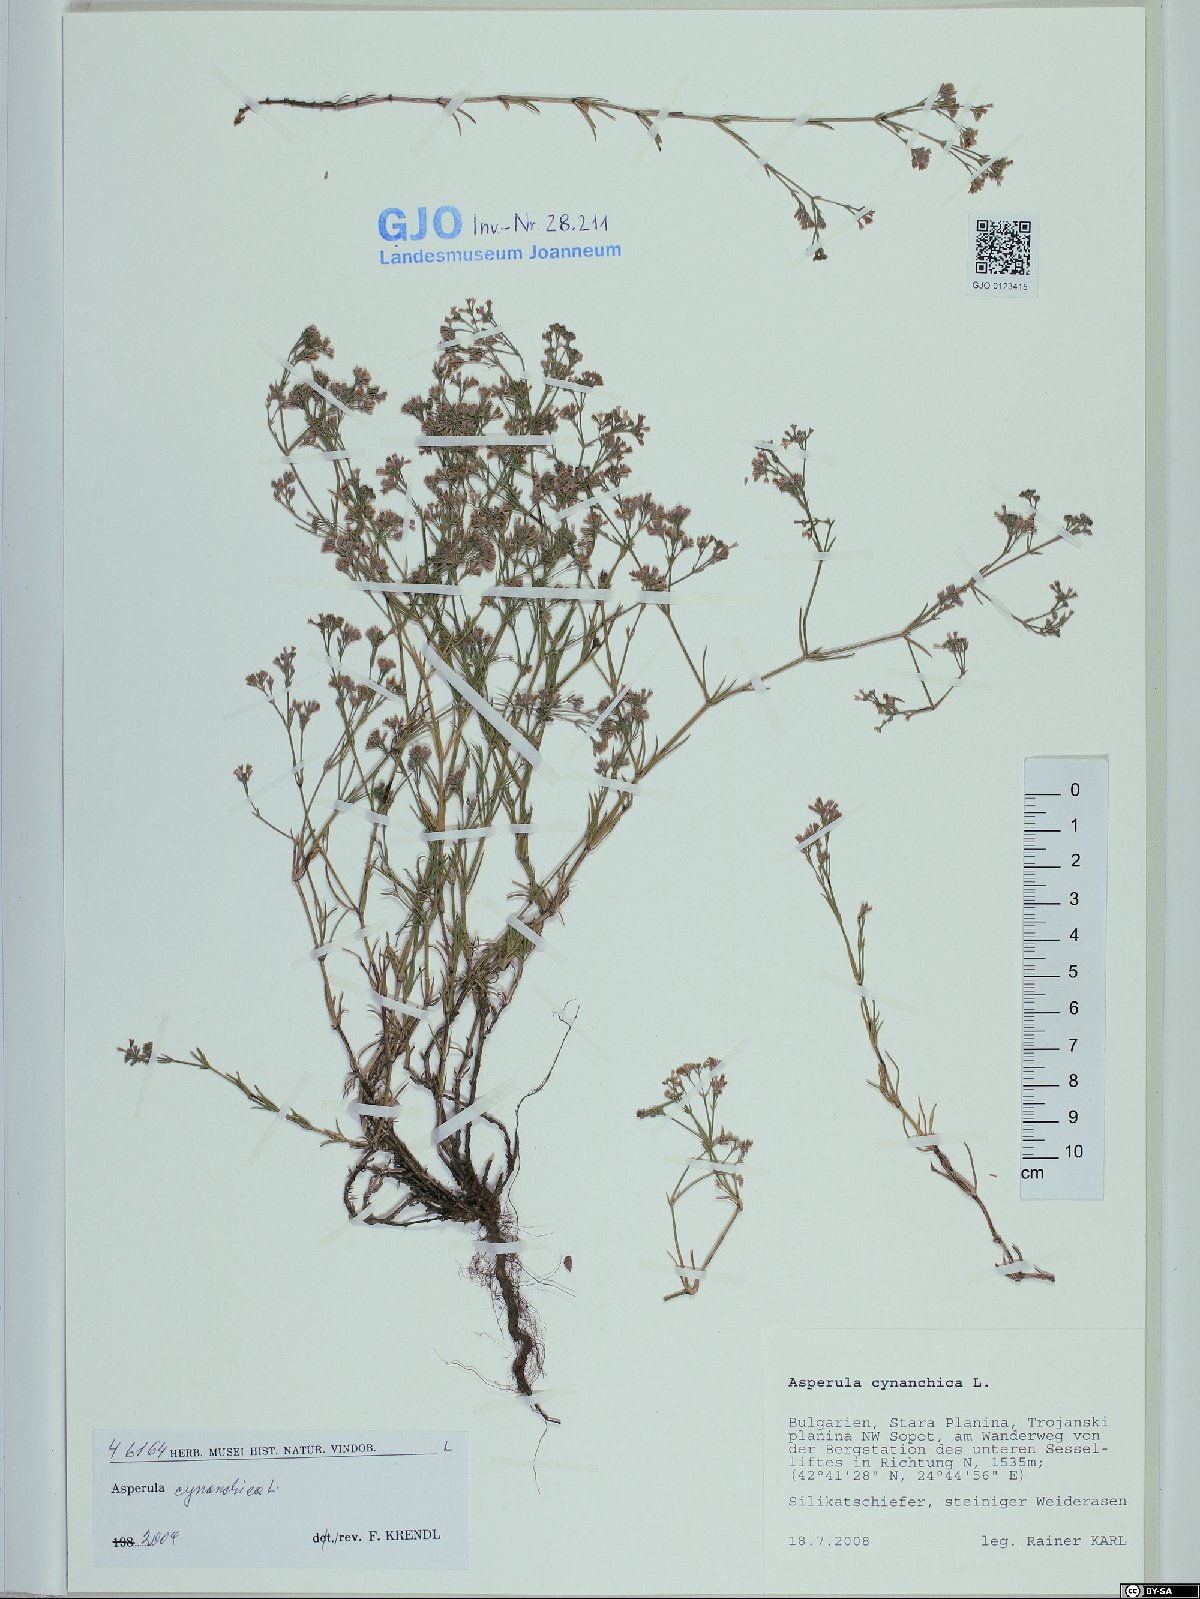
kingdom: Plantae
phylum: Tracheophyta
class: Magnoliopsida
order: Gentianales
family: Rubiaceae
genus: Cynanchica
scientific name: Cynanchica pyrenaica
